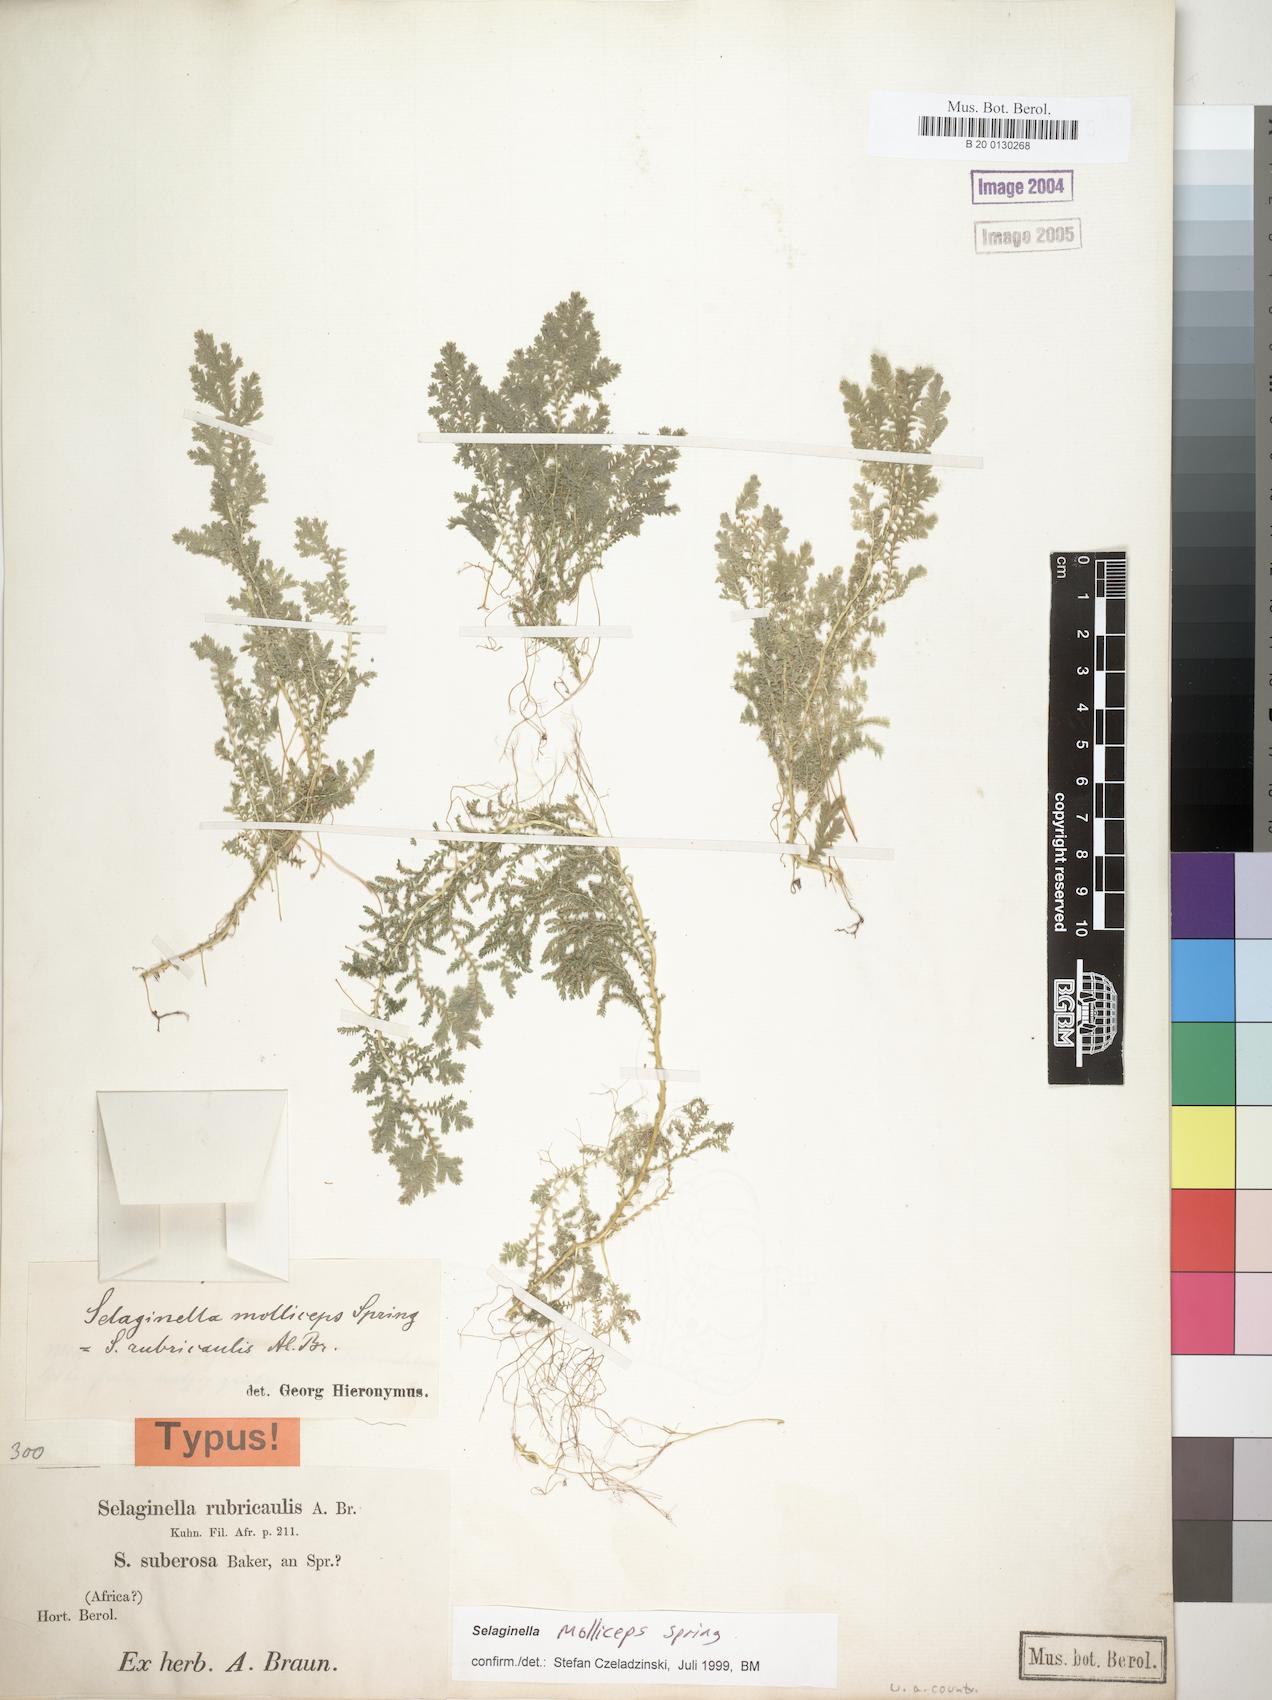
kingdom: Plantae
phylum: Tracheophyta
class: Lycopodiopsida
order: Selaginellales
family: Selaginellaceae
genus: Selaginella
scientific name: Selaginella molliceps
